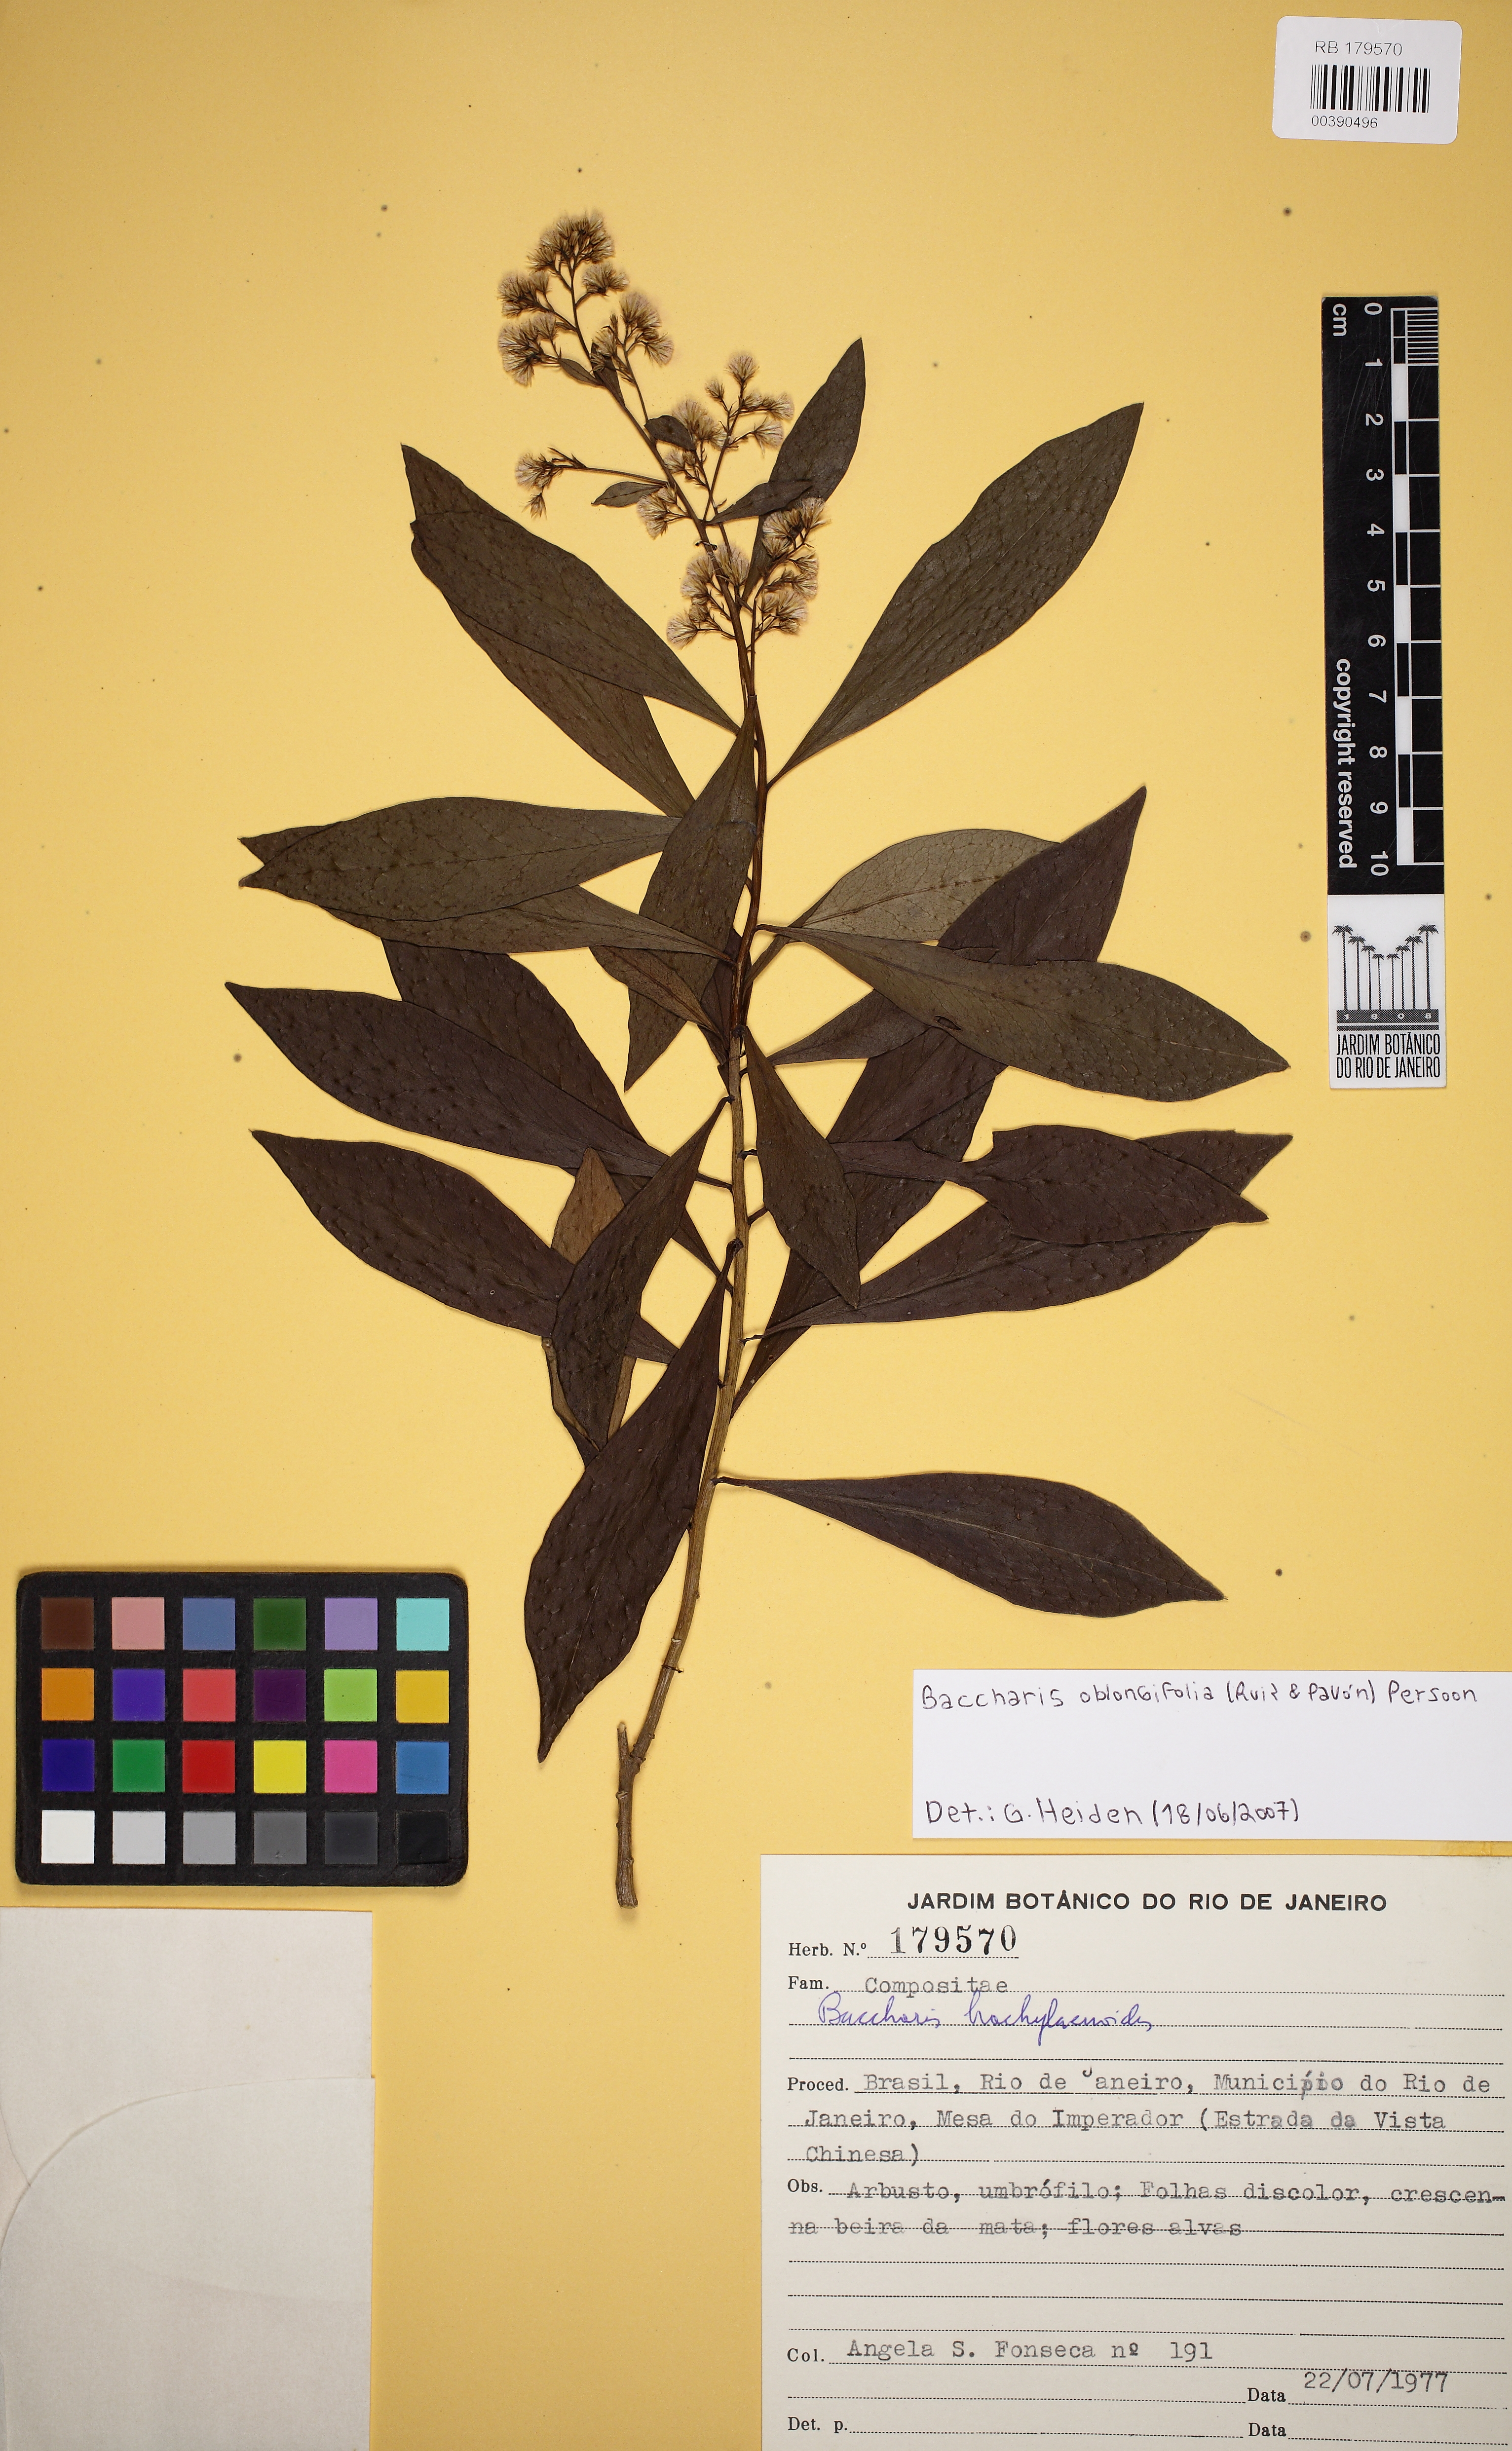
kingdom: Plantae
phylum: Tracheophyta
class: Magnoliopsida
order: Asterales
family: Asteraceae
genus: Baccharis
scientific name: Baccharis oblongifolia
